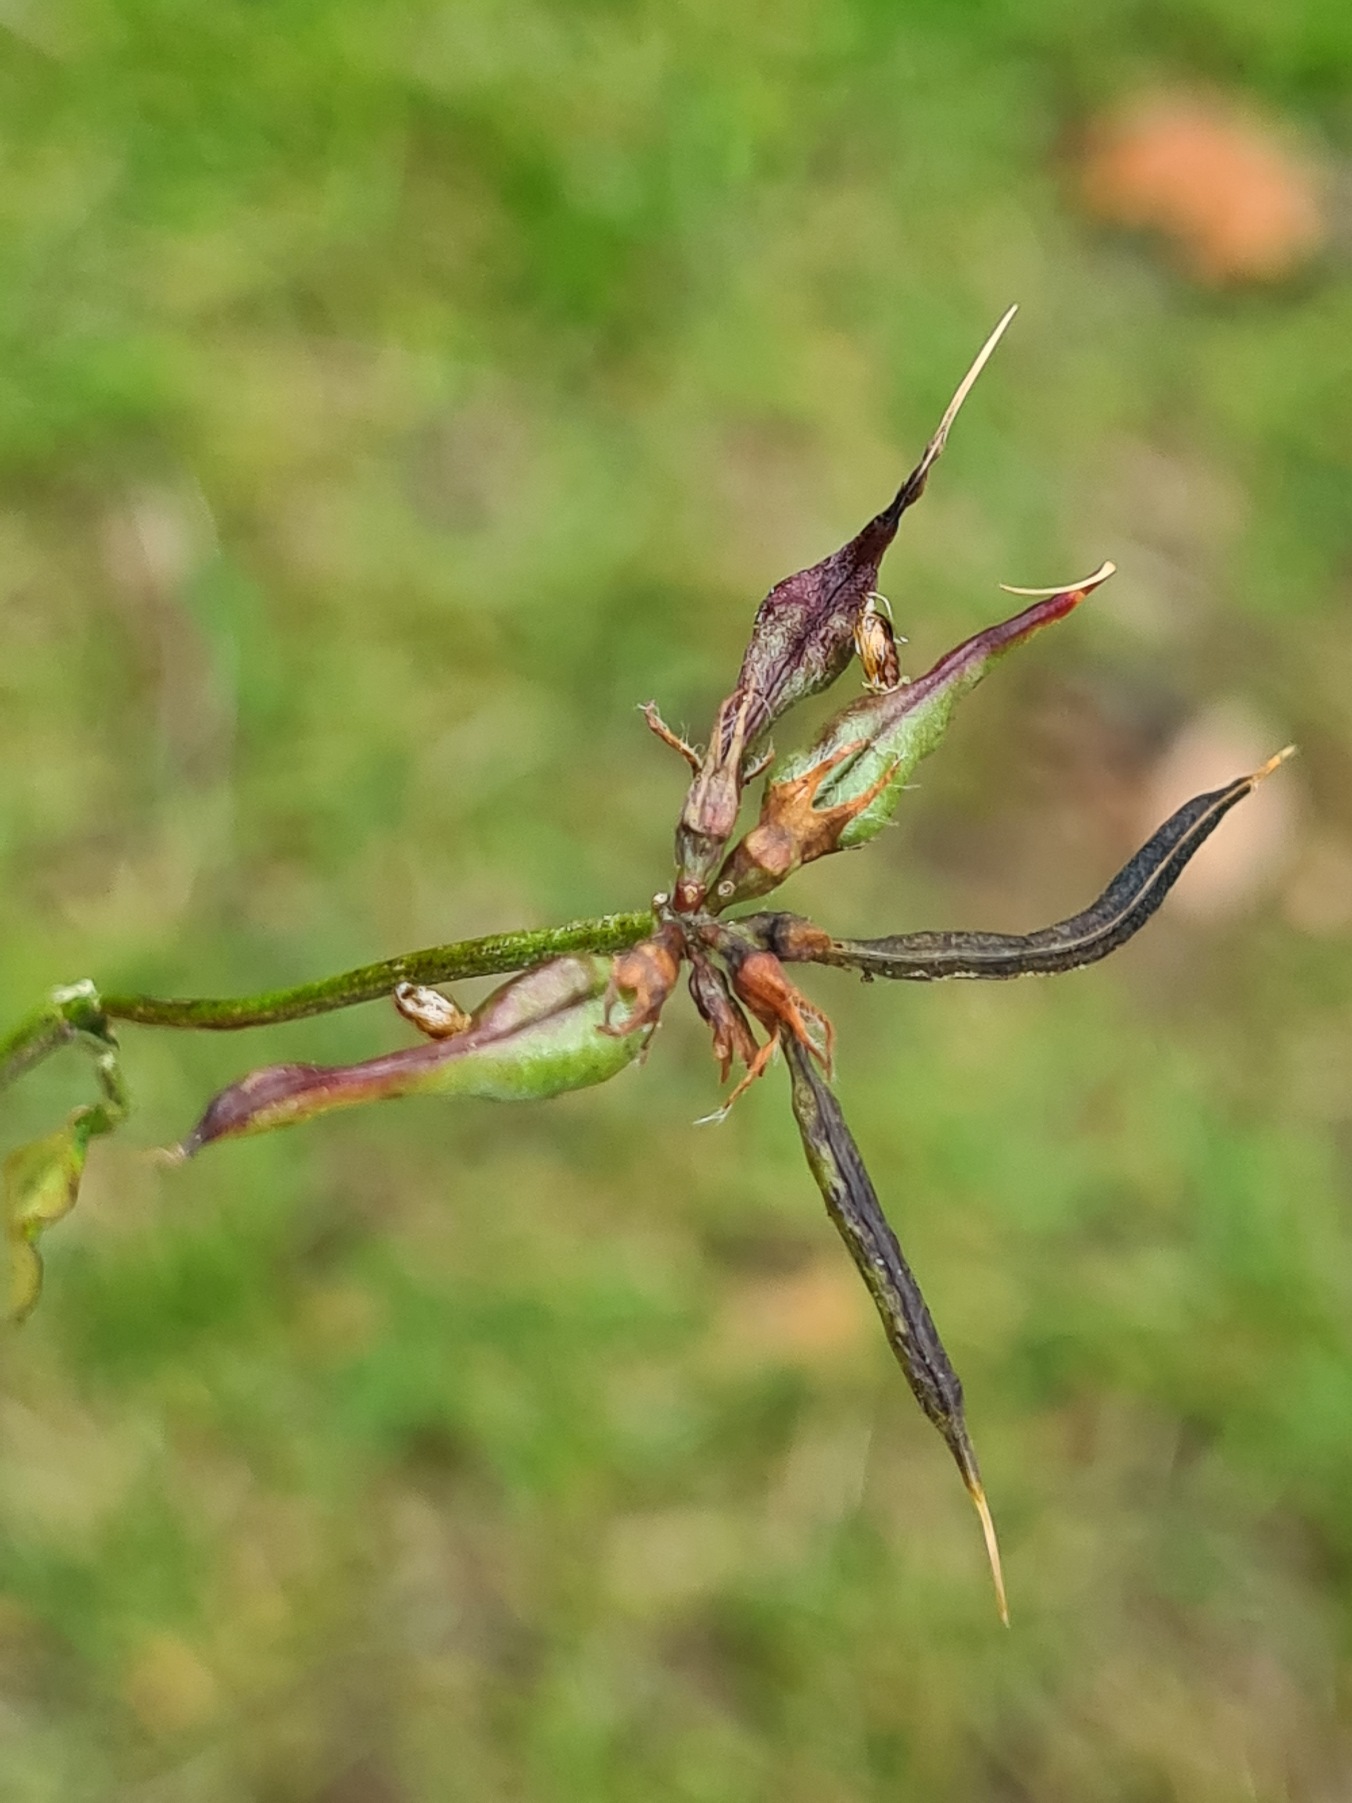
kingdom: Animalia
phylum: Arthropoda
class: Insecta
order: Diptera
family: Cecidomyiidae
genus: Asphondylia
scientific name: Asphondylia melanopus
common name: Kællingetandbælggalmyg
